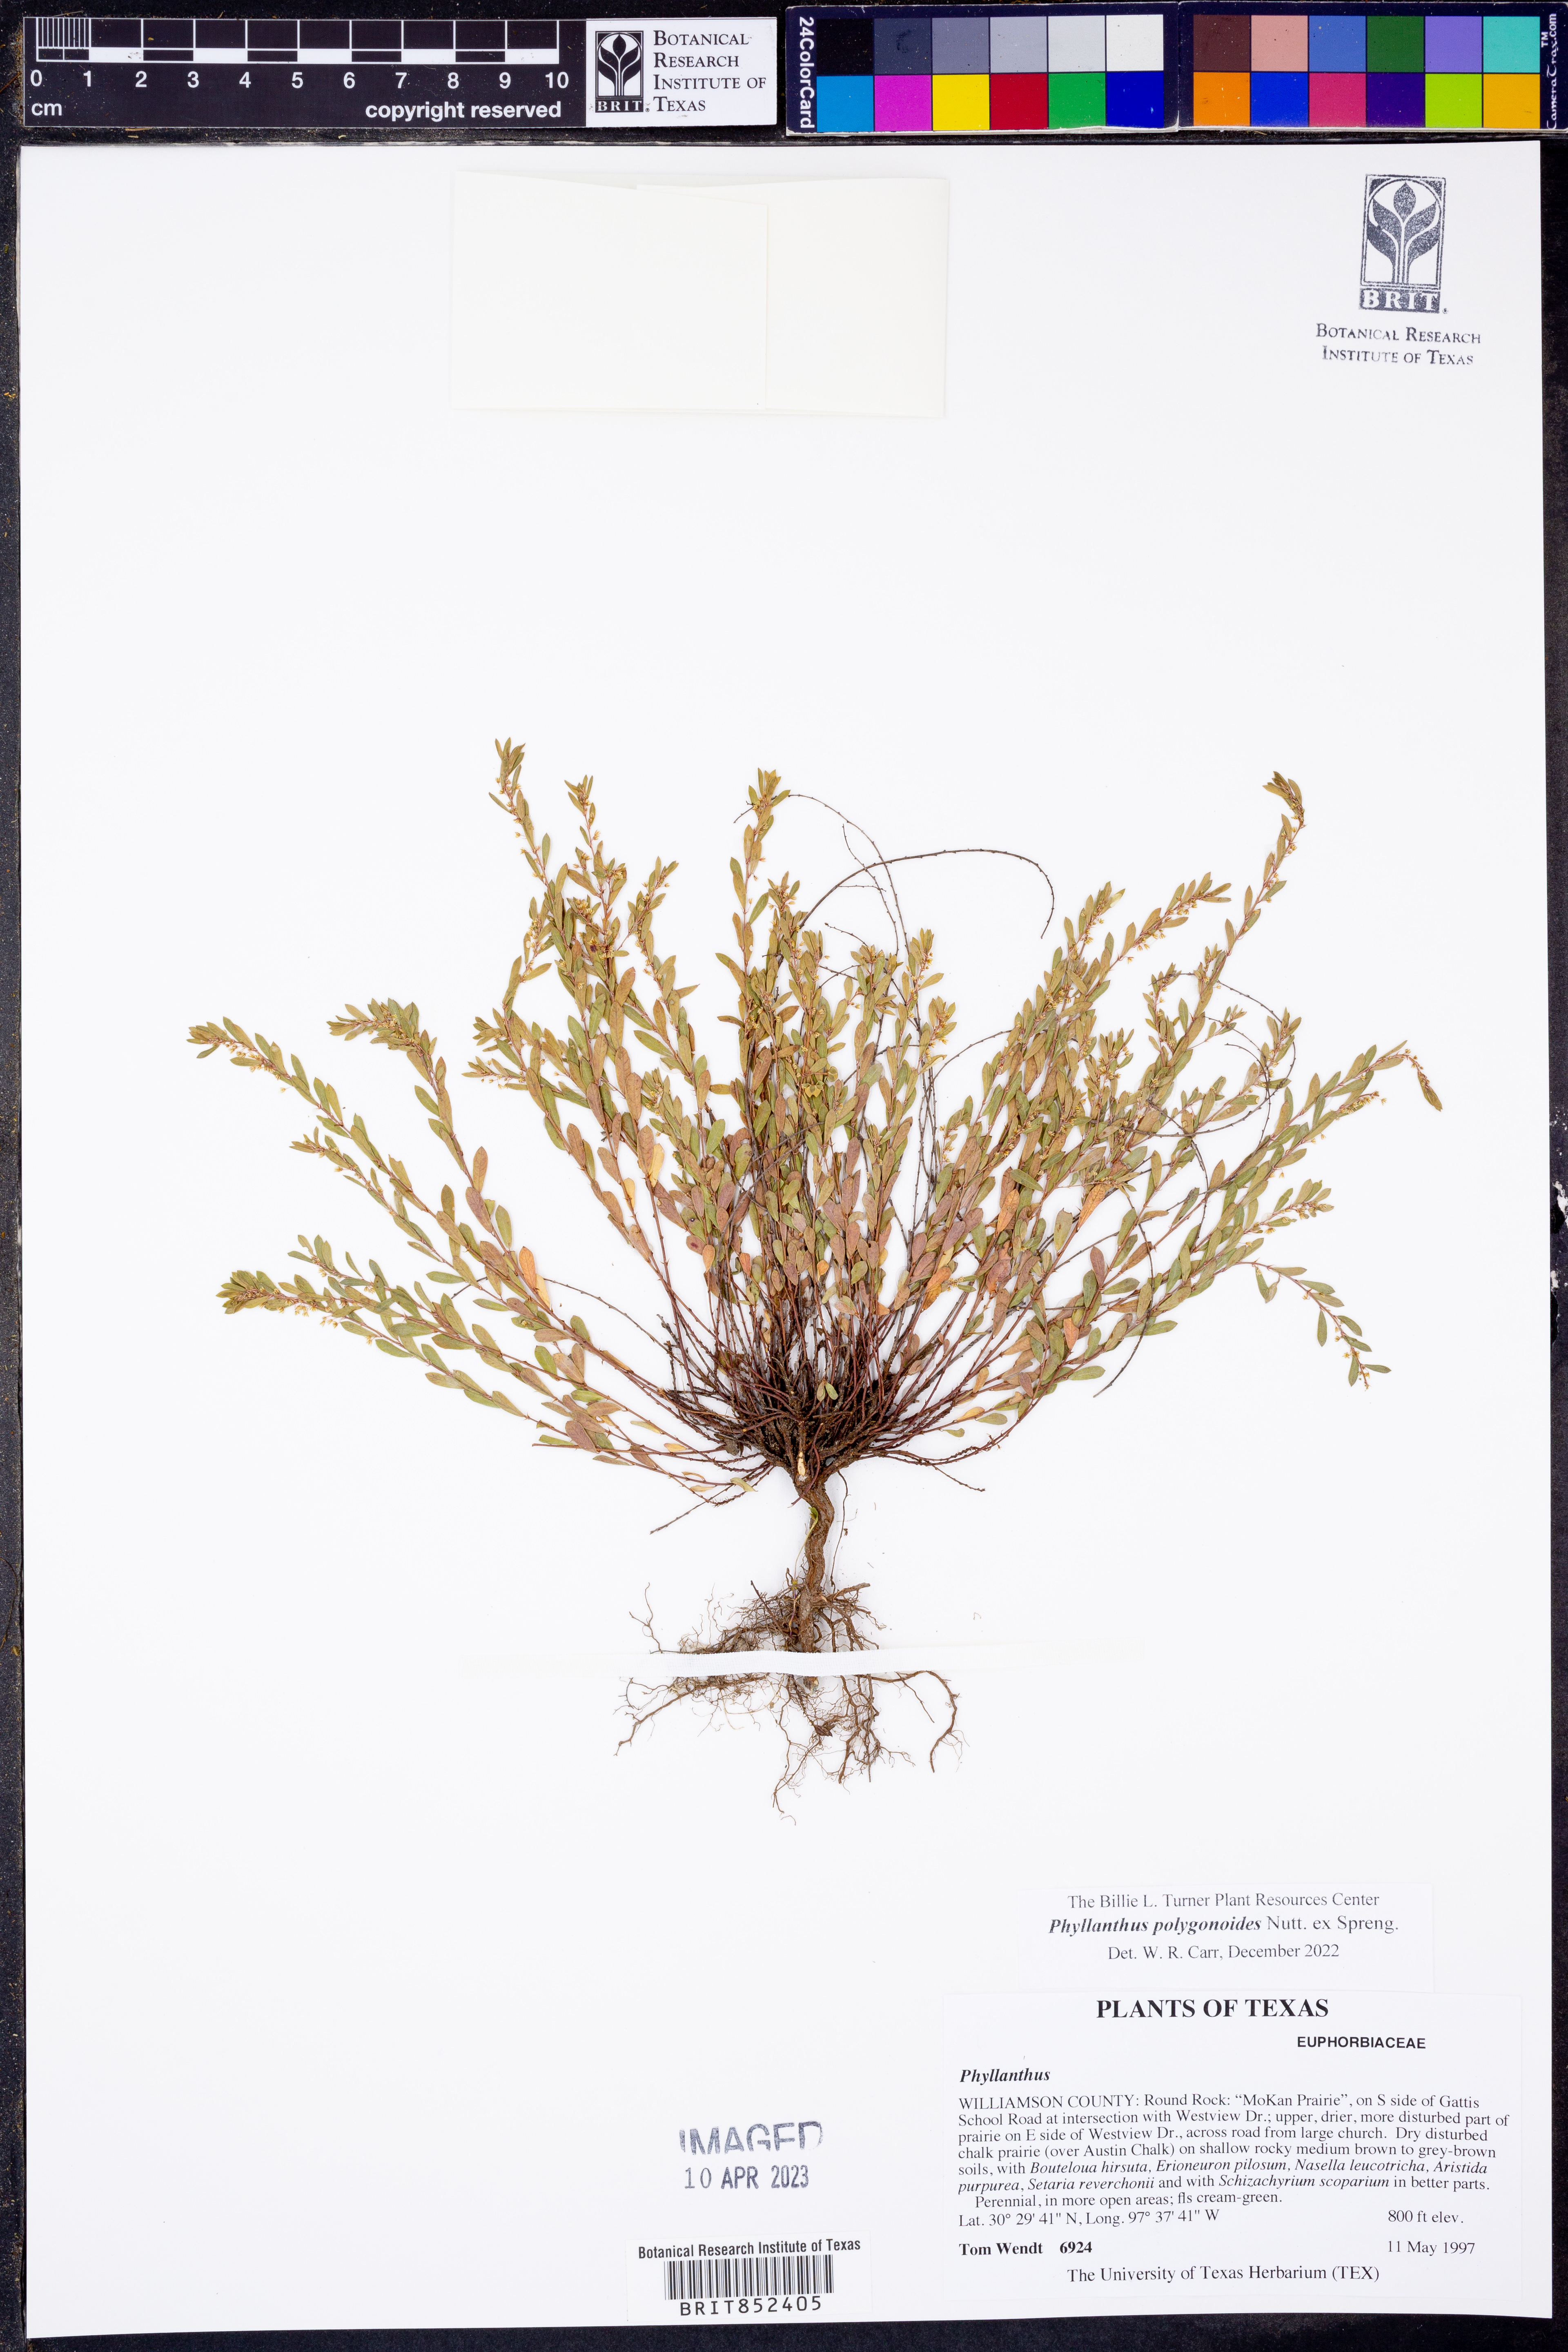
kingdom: Plantae
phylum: Tracheophyta
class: Magnoliopsida
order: Malpighiales
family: Phyllanthaceae
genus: Phyllanthus
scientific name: Phyllanthus polygonoides
